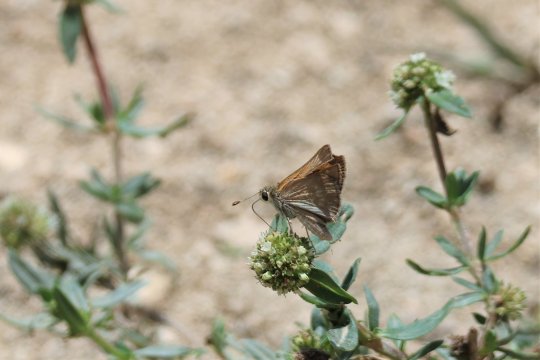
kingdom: Animalia
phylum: Arthropoda
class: Insecta
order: Lepidoptera
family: Hesperiidae
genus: Polites
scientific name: Polites baracoa
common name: Baracoa Skipper
